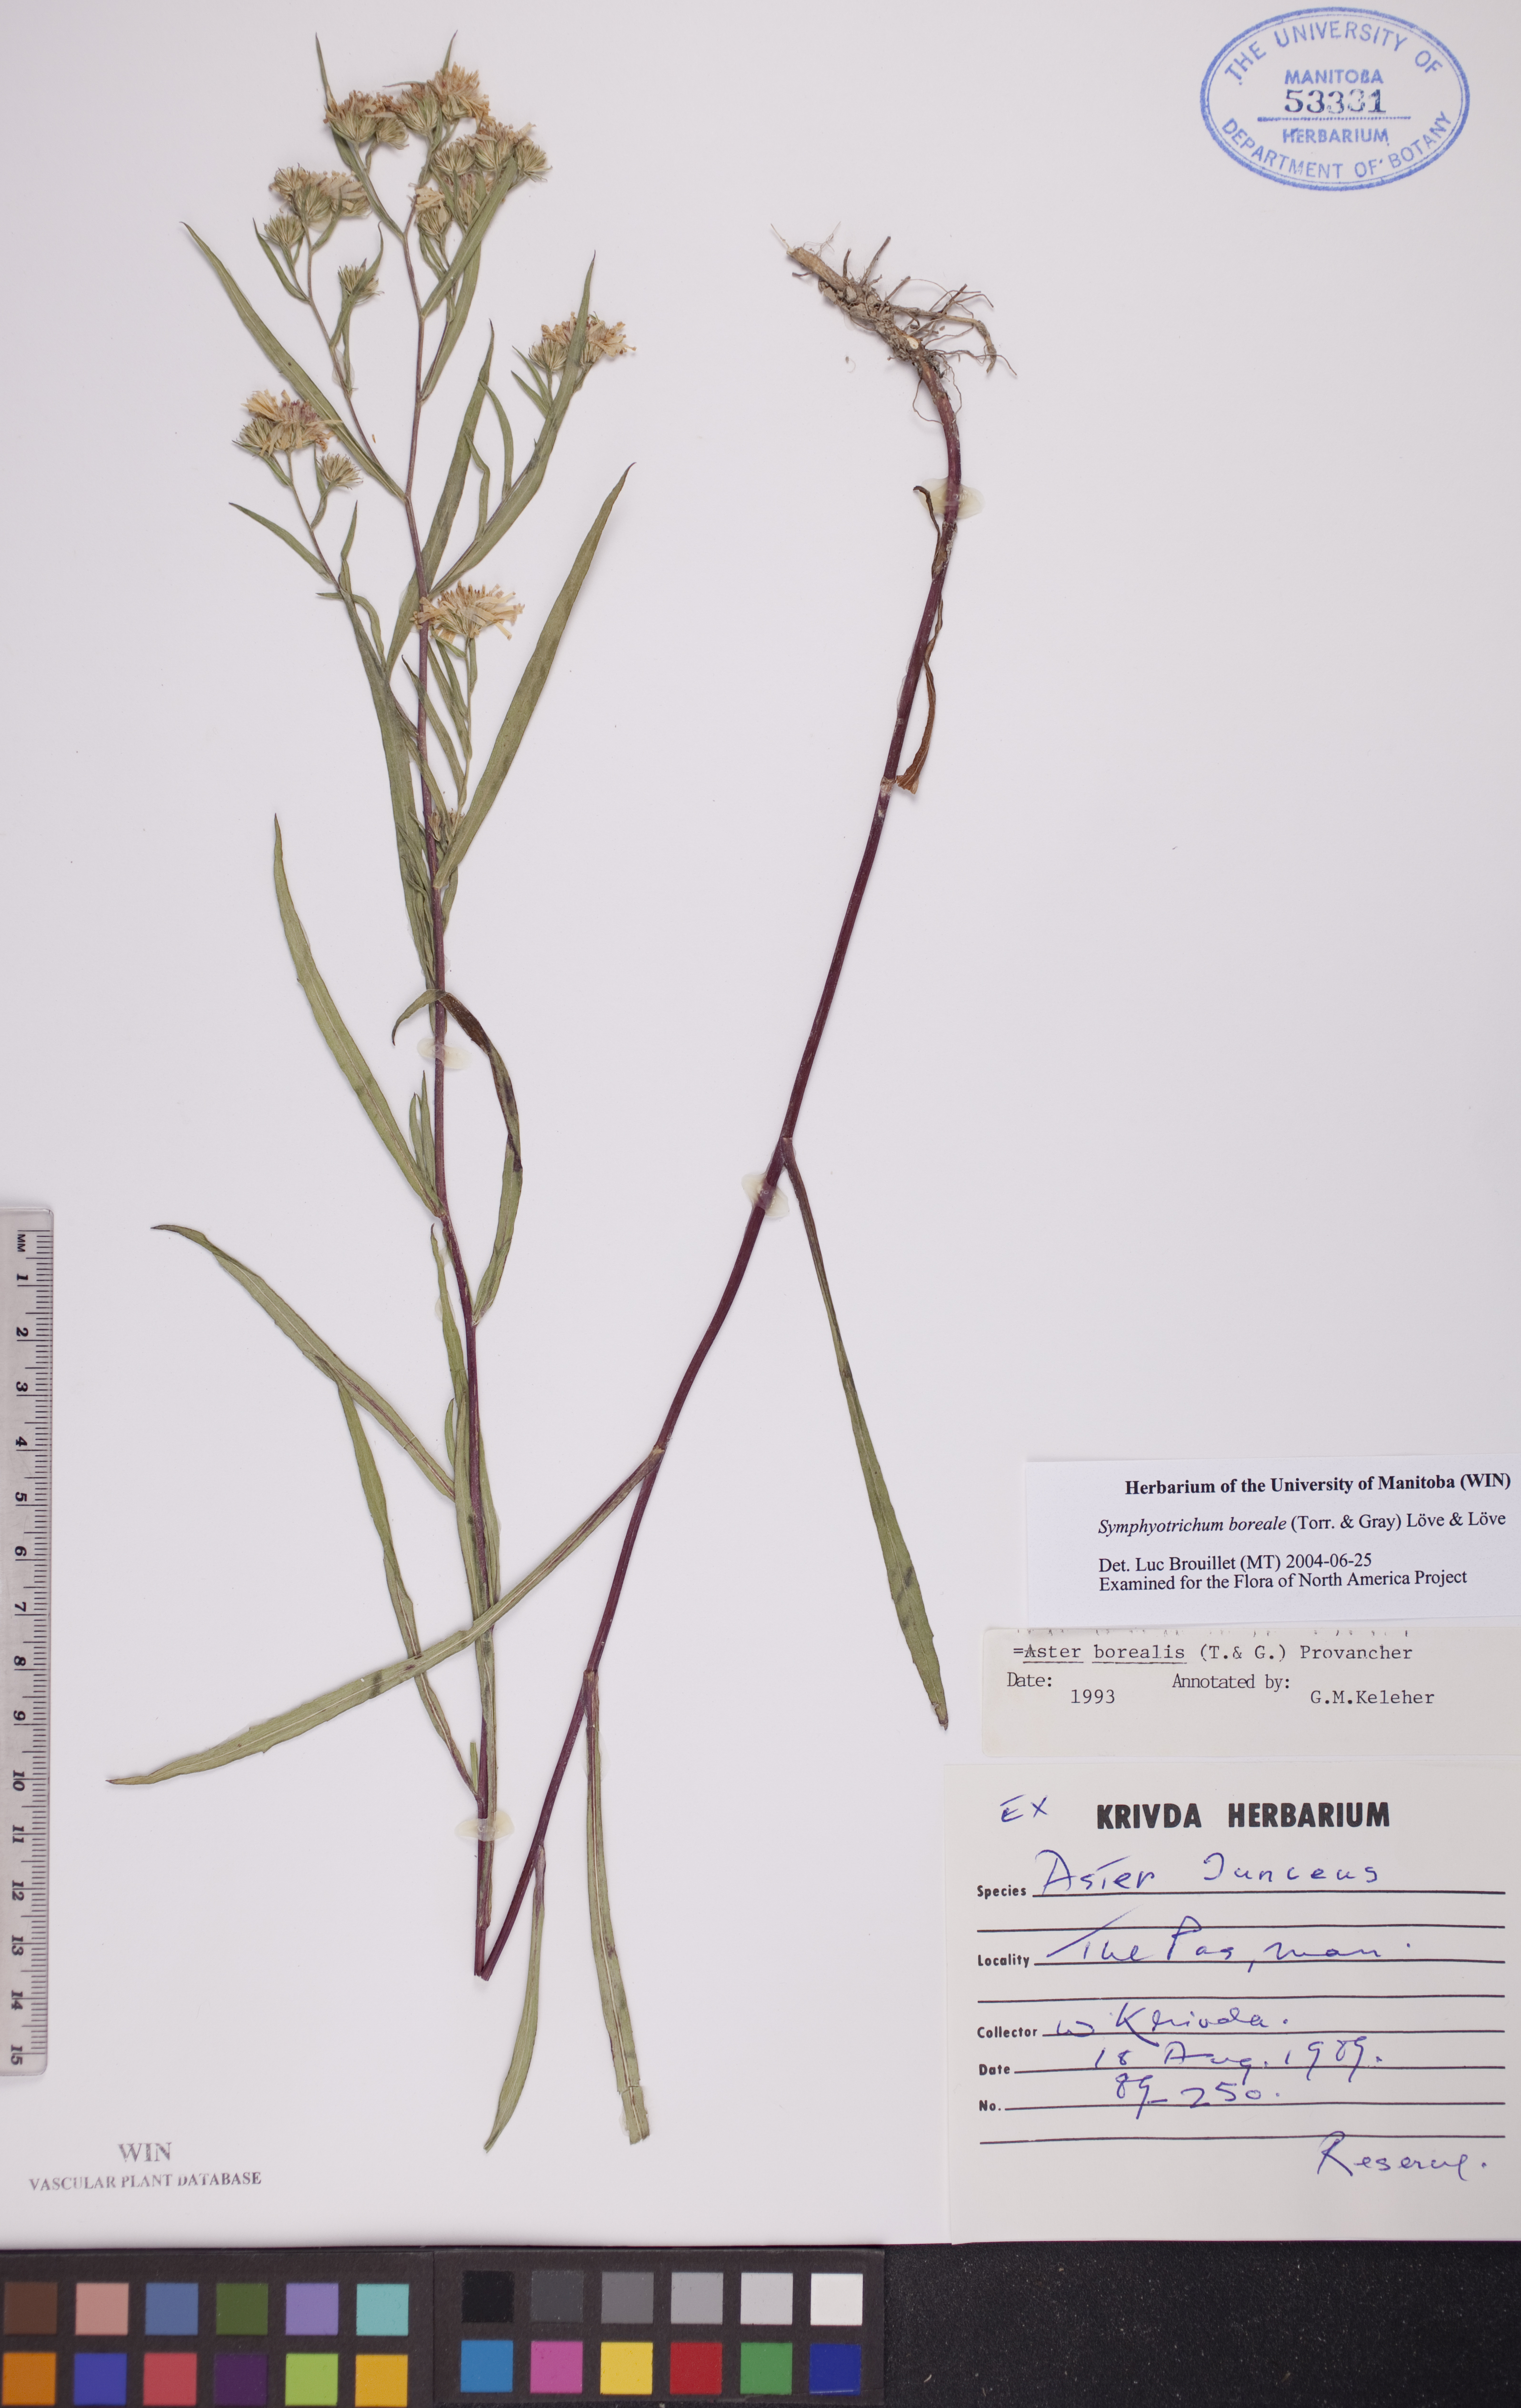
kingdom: Plantae
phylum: Tracheophyta
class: Magnoliopsida
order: Asterales
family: Asteraceae
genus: Symphyotrichum
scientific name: Symphyotrichum boreale
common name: Northern bog aster
